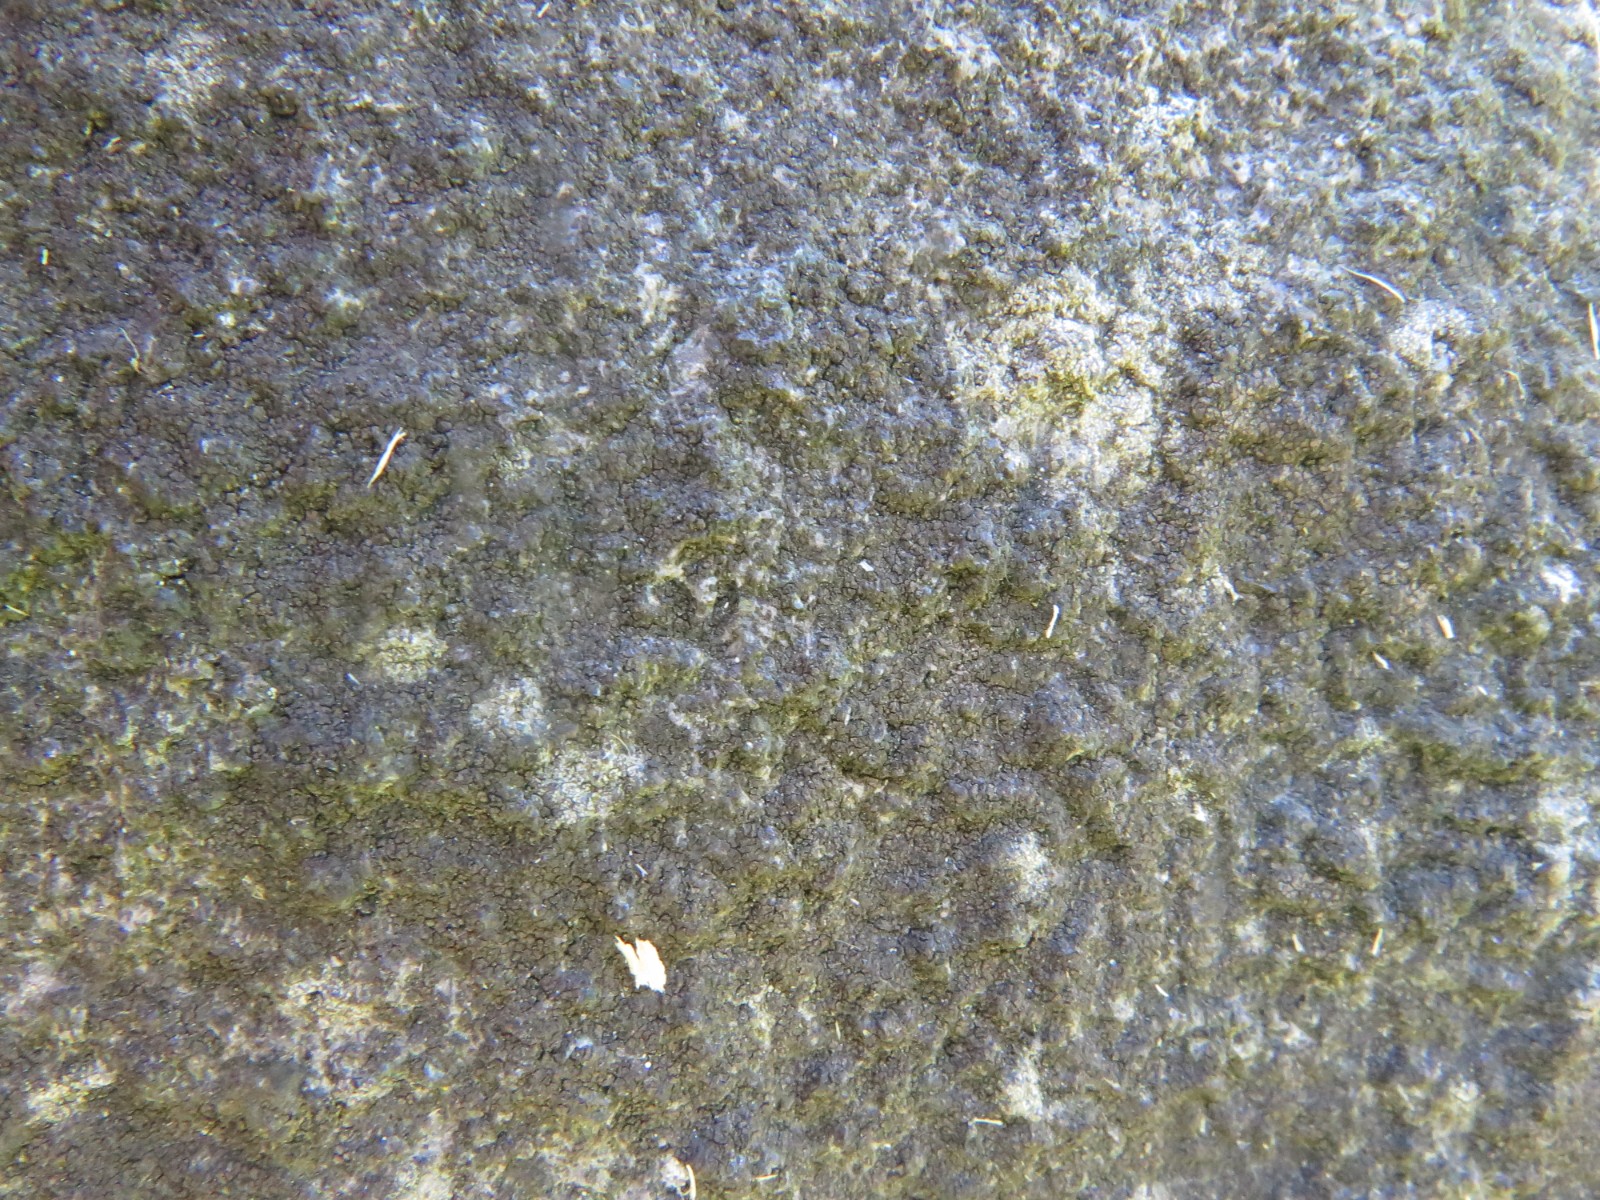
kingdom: Fungi
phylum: Ascomycota
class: Eurotiomycetes
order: Verrucariales
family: Verrucariaceae
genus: Verrucaria
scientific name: Verrucaria nigrescens
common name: sortbrun vortelav
